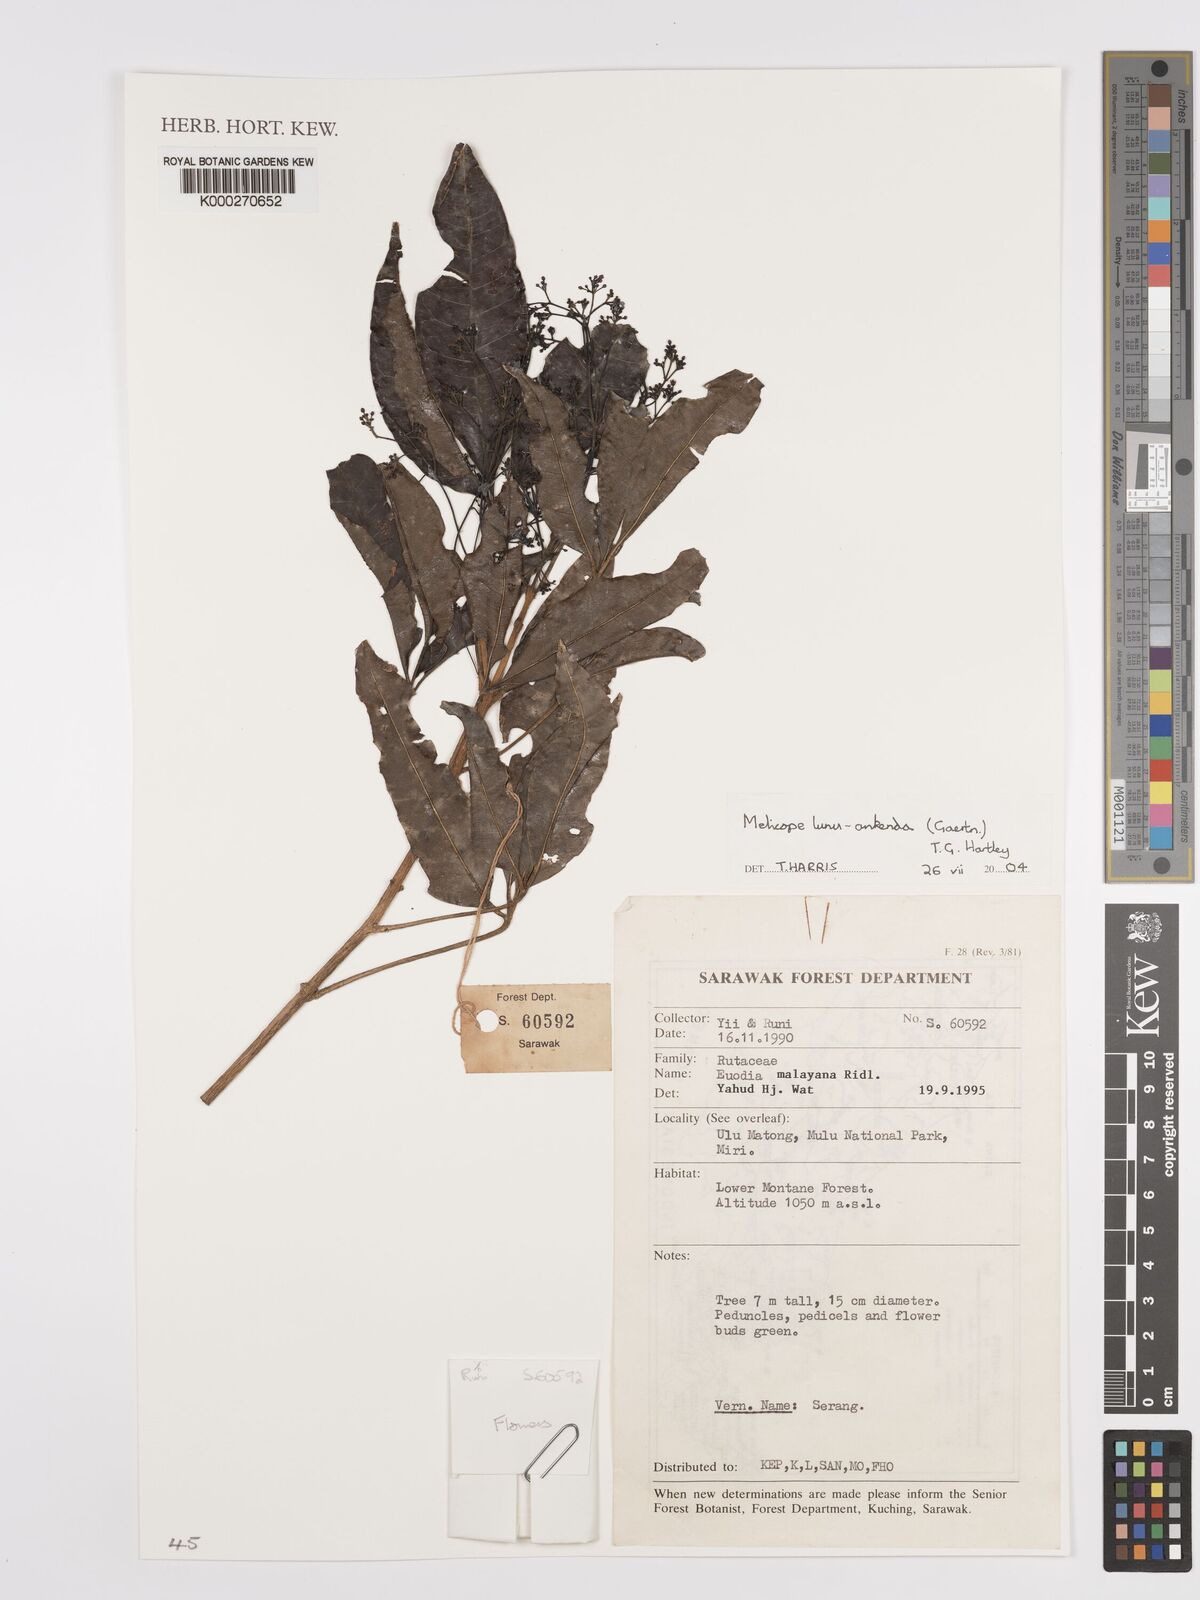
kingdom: Plantae
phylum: Tracheophyta
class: Magnoliopsida
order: Sapindales
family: Rutaceae
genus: Melicope
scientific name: Melicope lunu-ankenda
